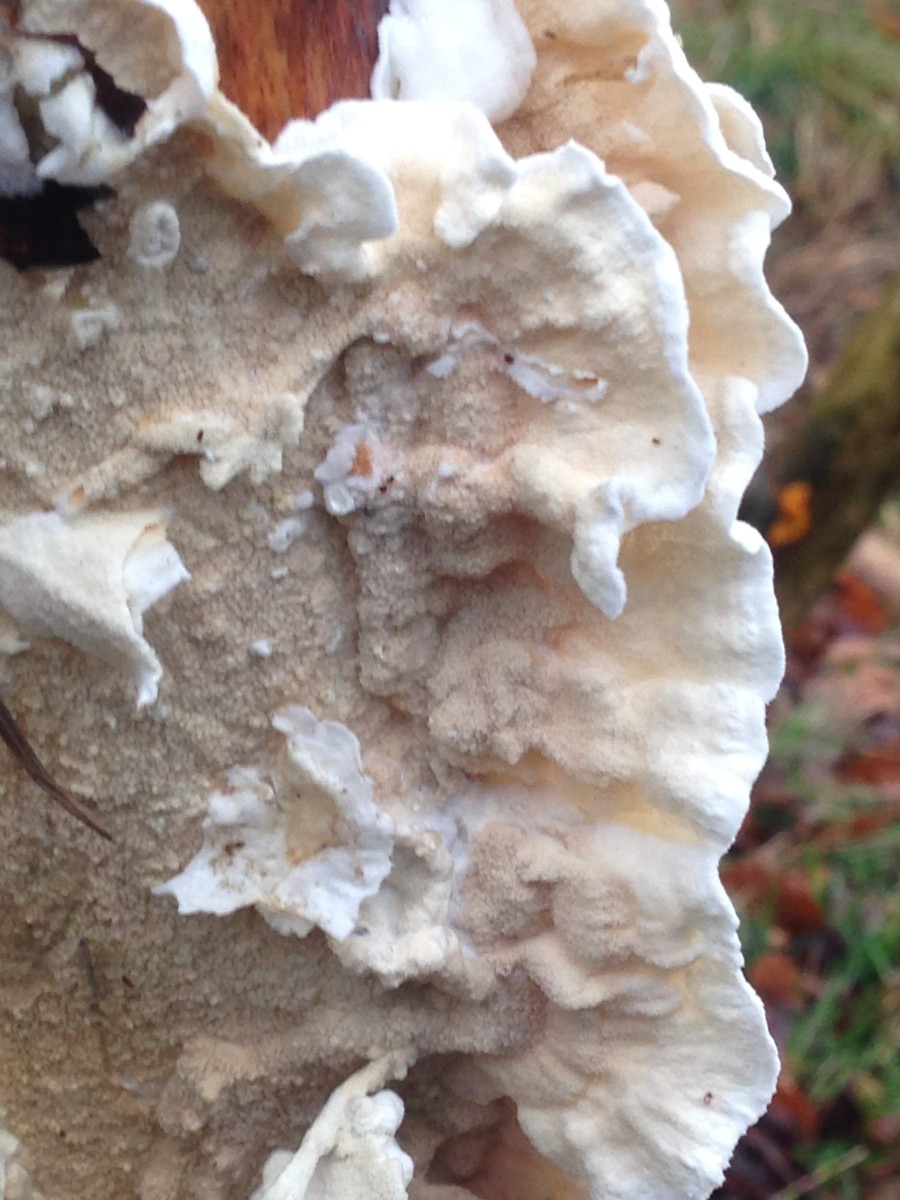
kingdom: Fungi
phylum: Basidiomycota
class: Agaricomycetes
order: Polyporales
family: Irpicaceae
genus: Byssomerulius
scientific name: Byssomerulius corium
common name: læder-åresvamp
